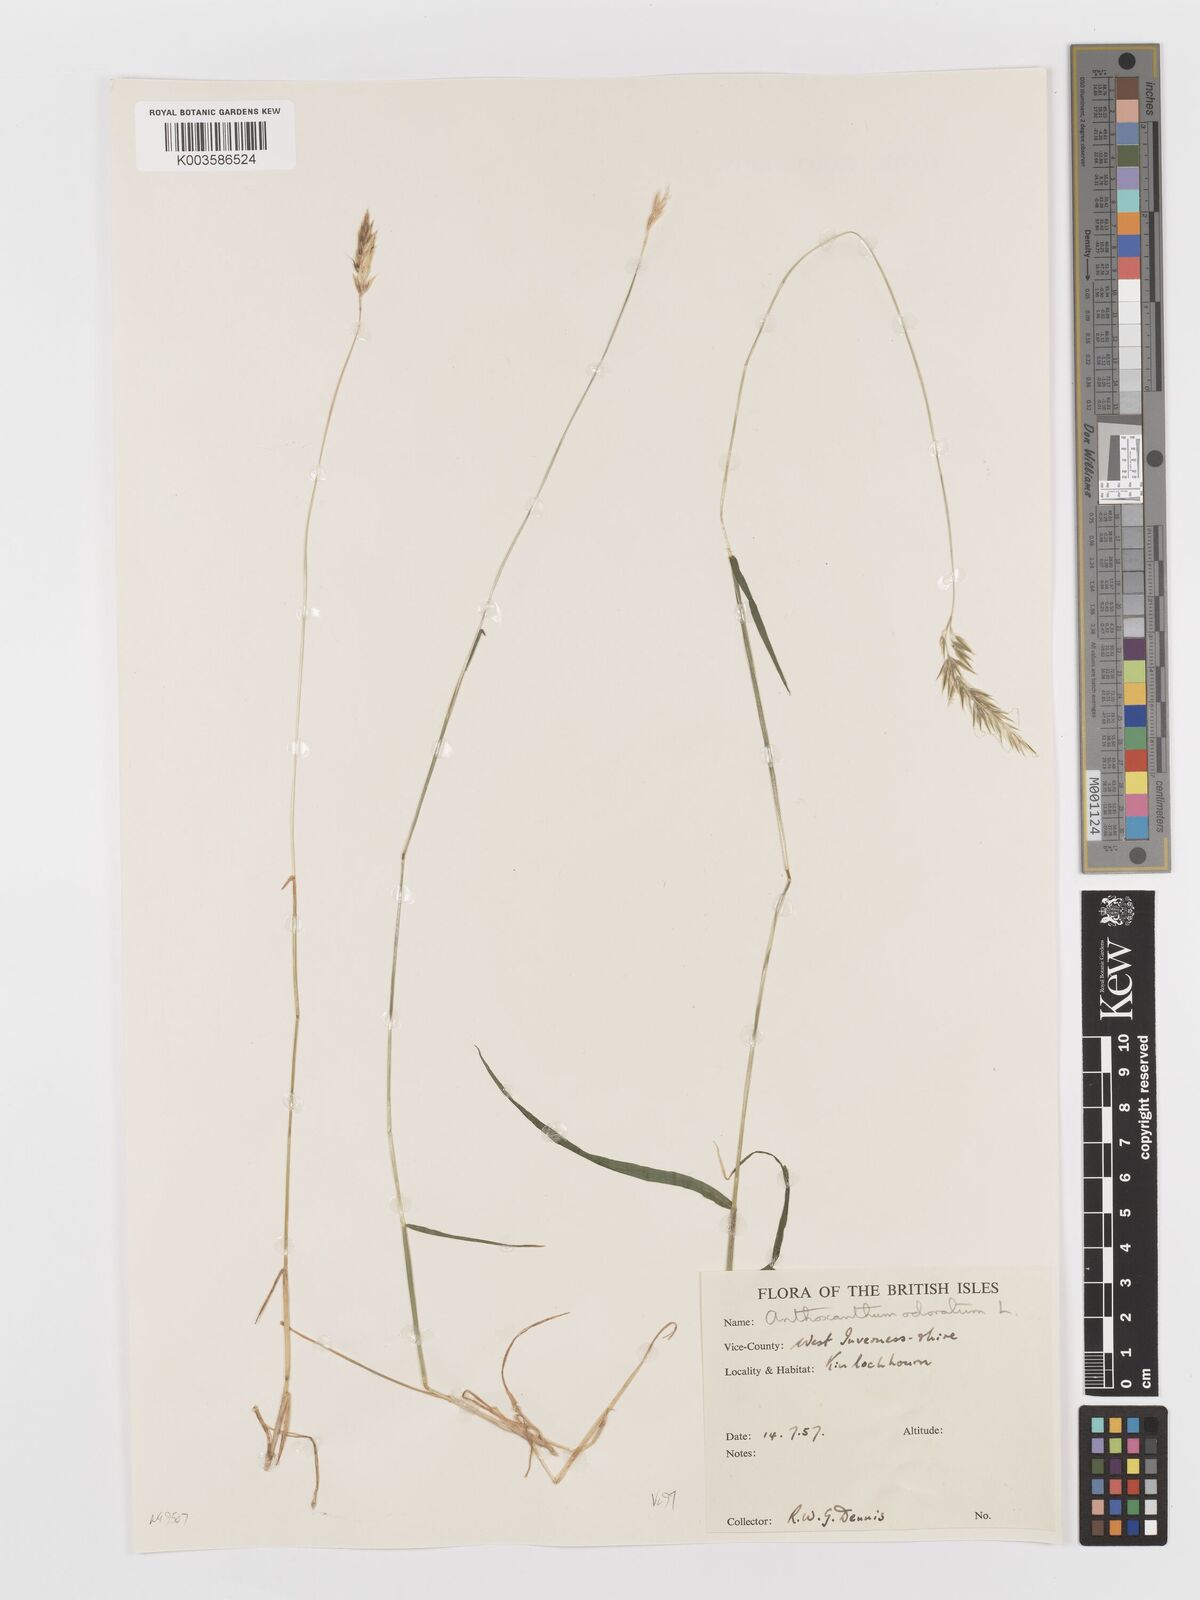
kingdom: Plantae
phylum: Tracheophyta
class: Liliopsida
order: Poales
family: Poaceae
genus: Anthoxanthum
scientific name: Anthoxanthum odoratum
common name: Sweet vernalgrass
